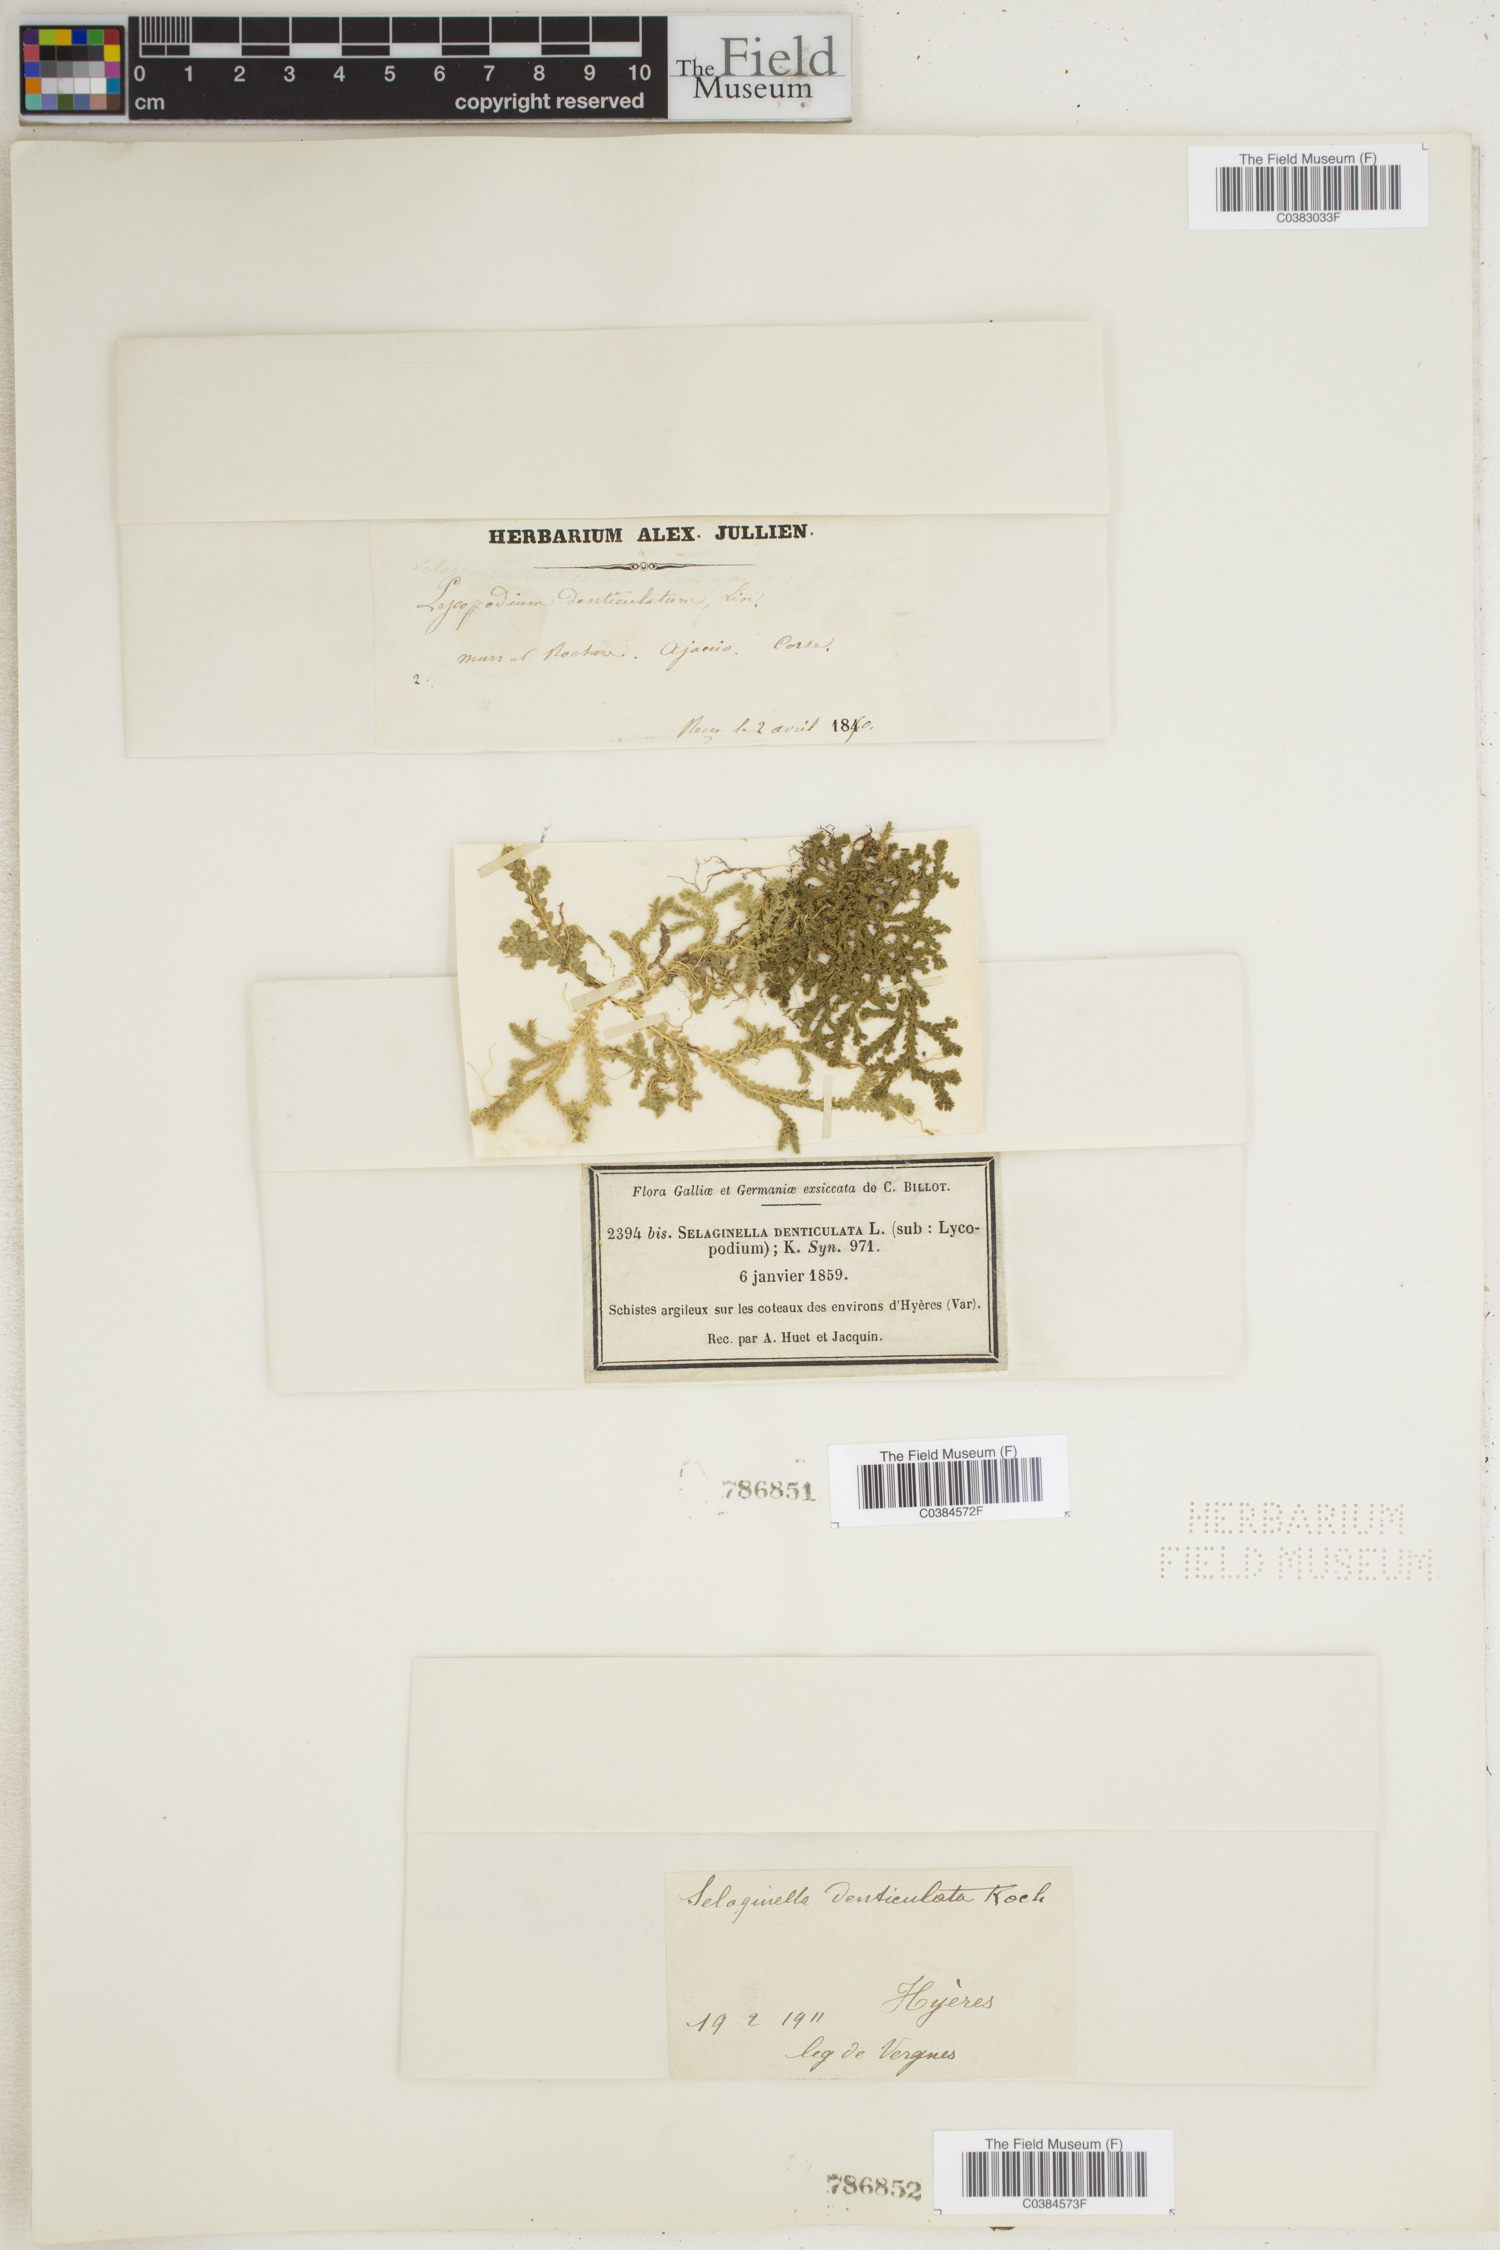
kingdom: Plantae
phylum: Tracheophyta
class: Lycopodiopsida
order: Selaginellales
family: Selaginellaceae
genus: Selaginella
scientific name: Selaginella denticulata
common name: Toothed-leaved clubmoss
